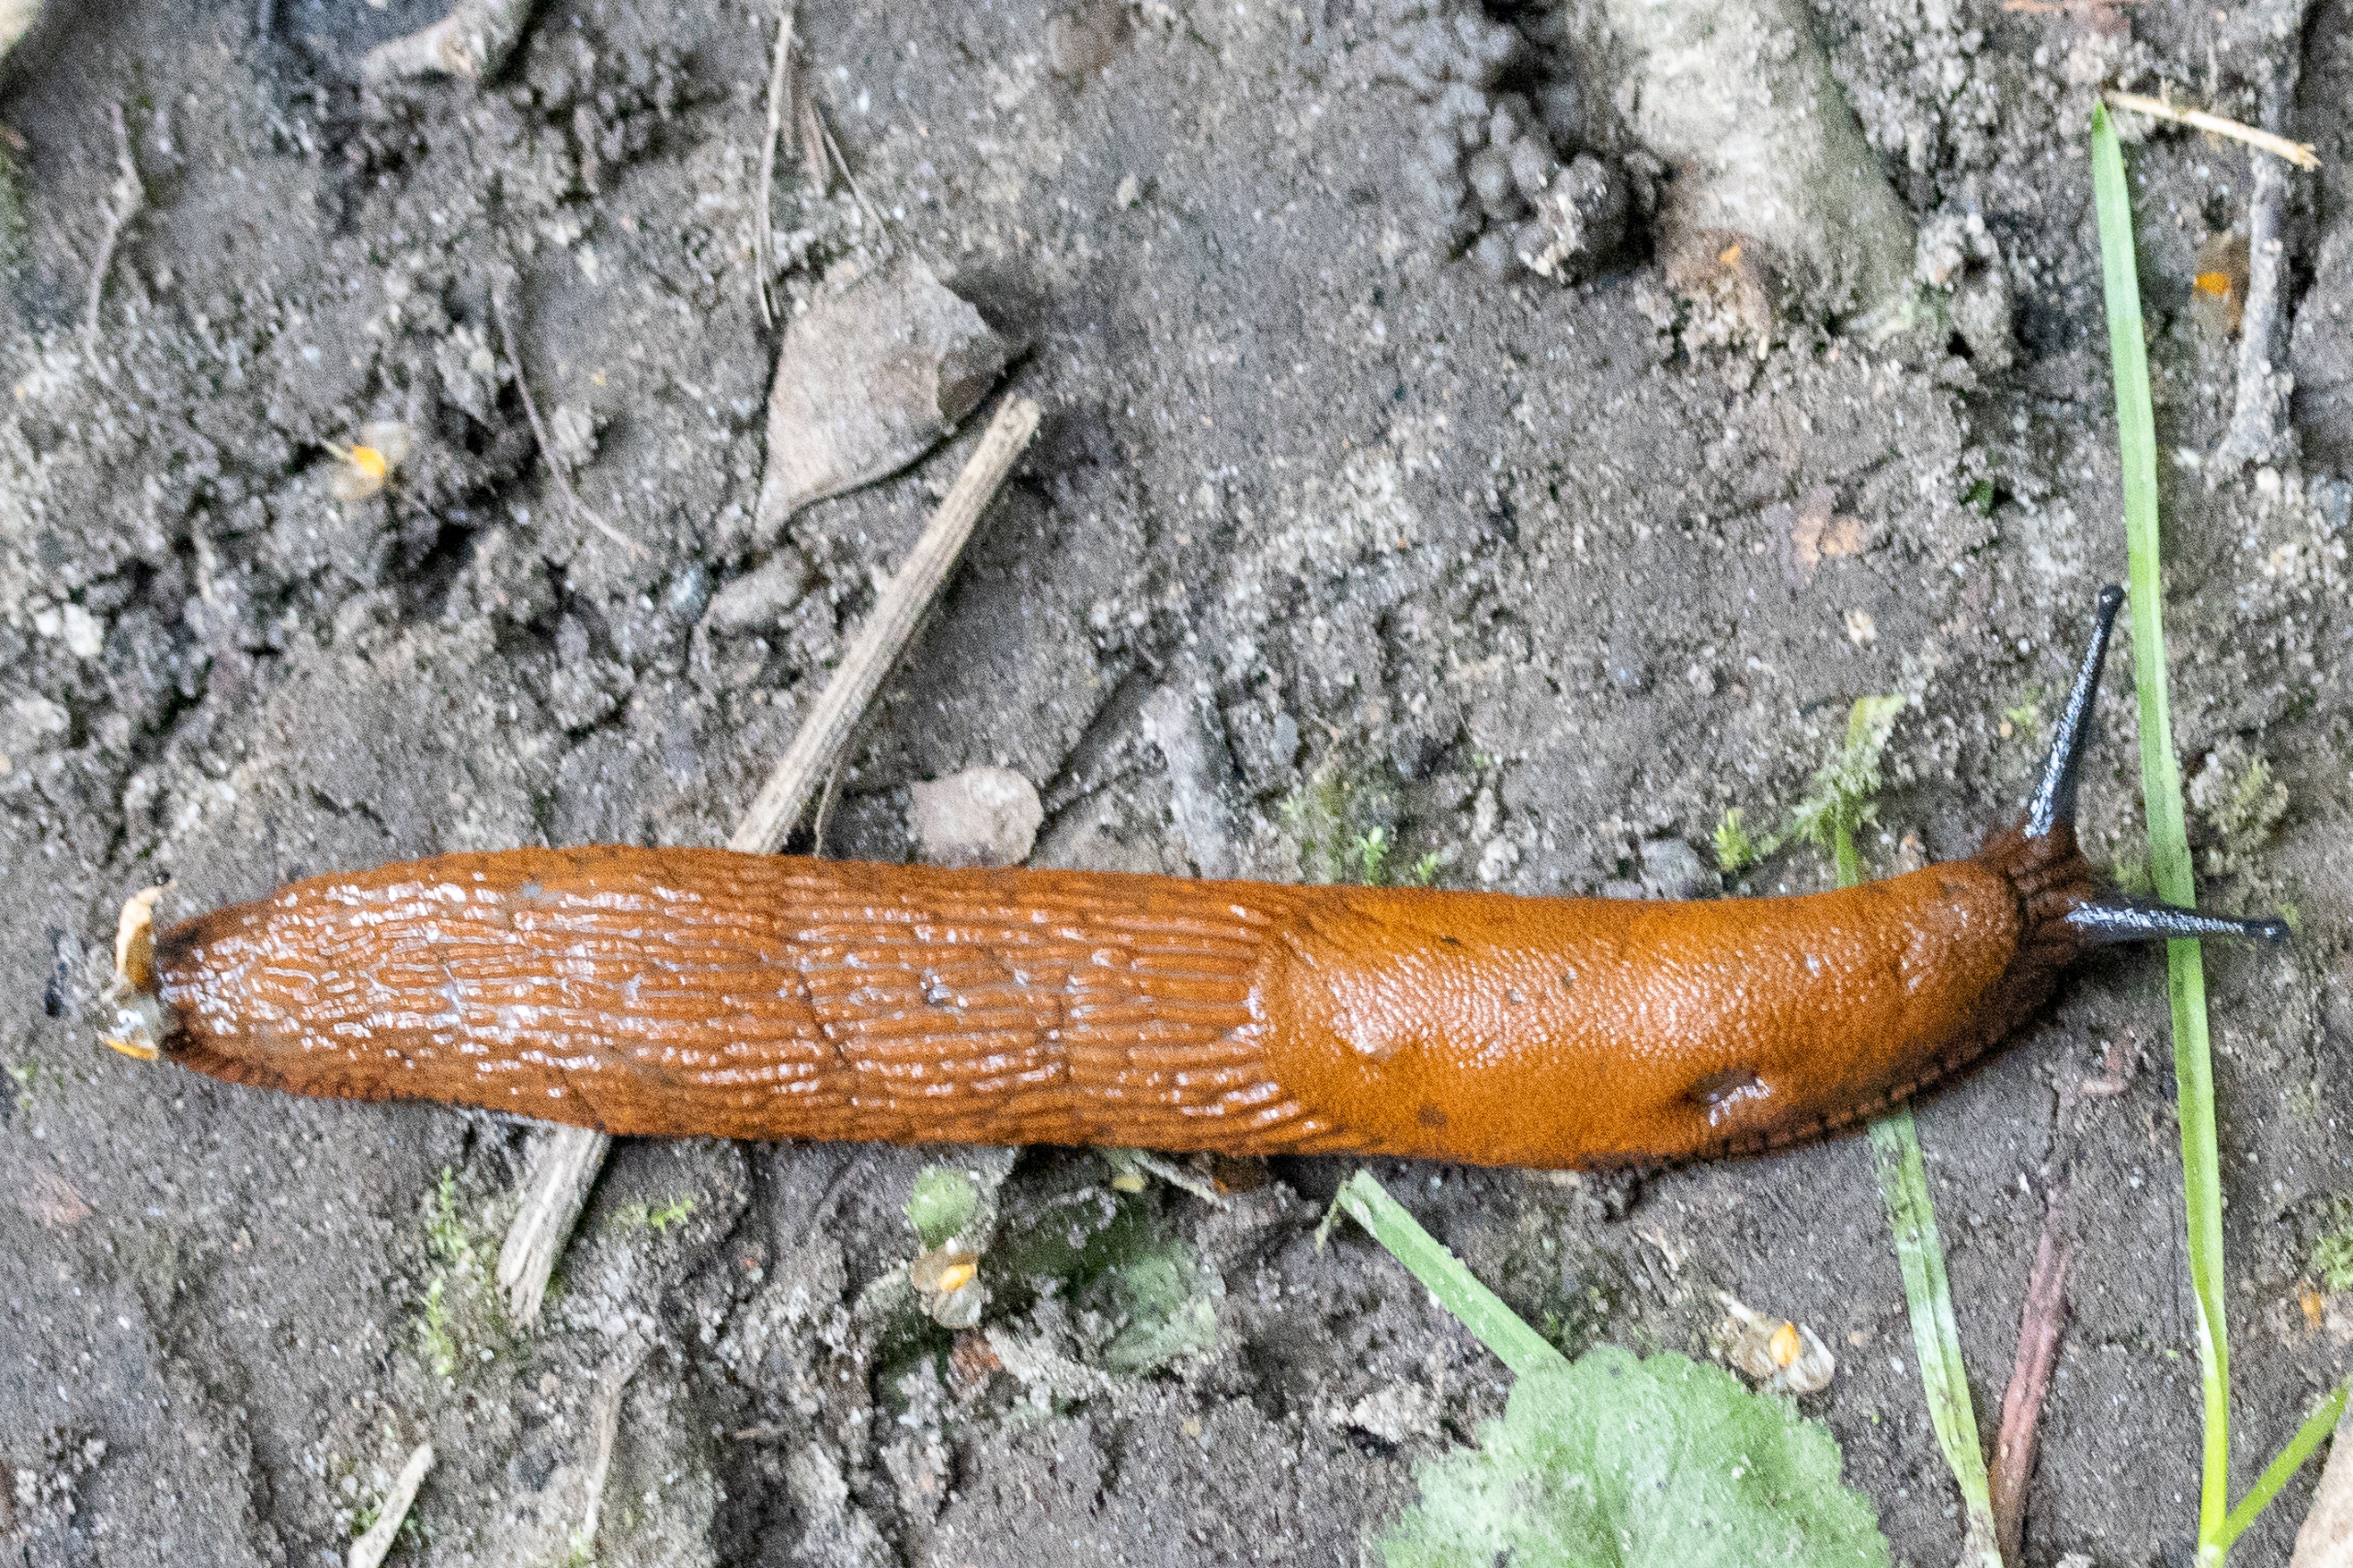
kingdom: Animalia
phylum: Mollusca
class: Gastropoda
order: Stylommatophora
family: Arionidae
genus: Arion
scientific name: Arion vulgaris
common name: Iberisk skovsnegl
